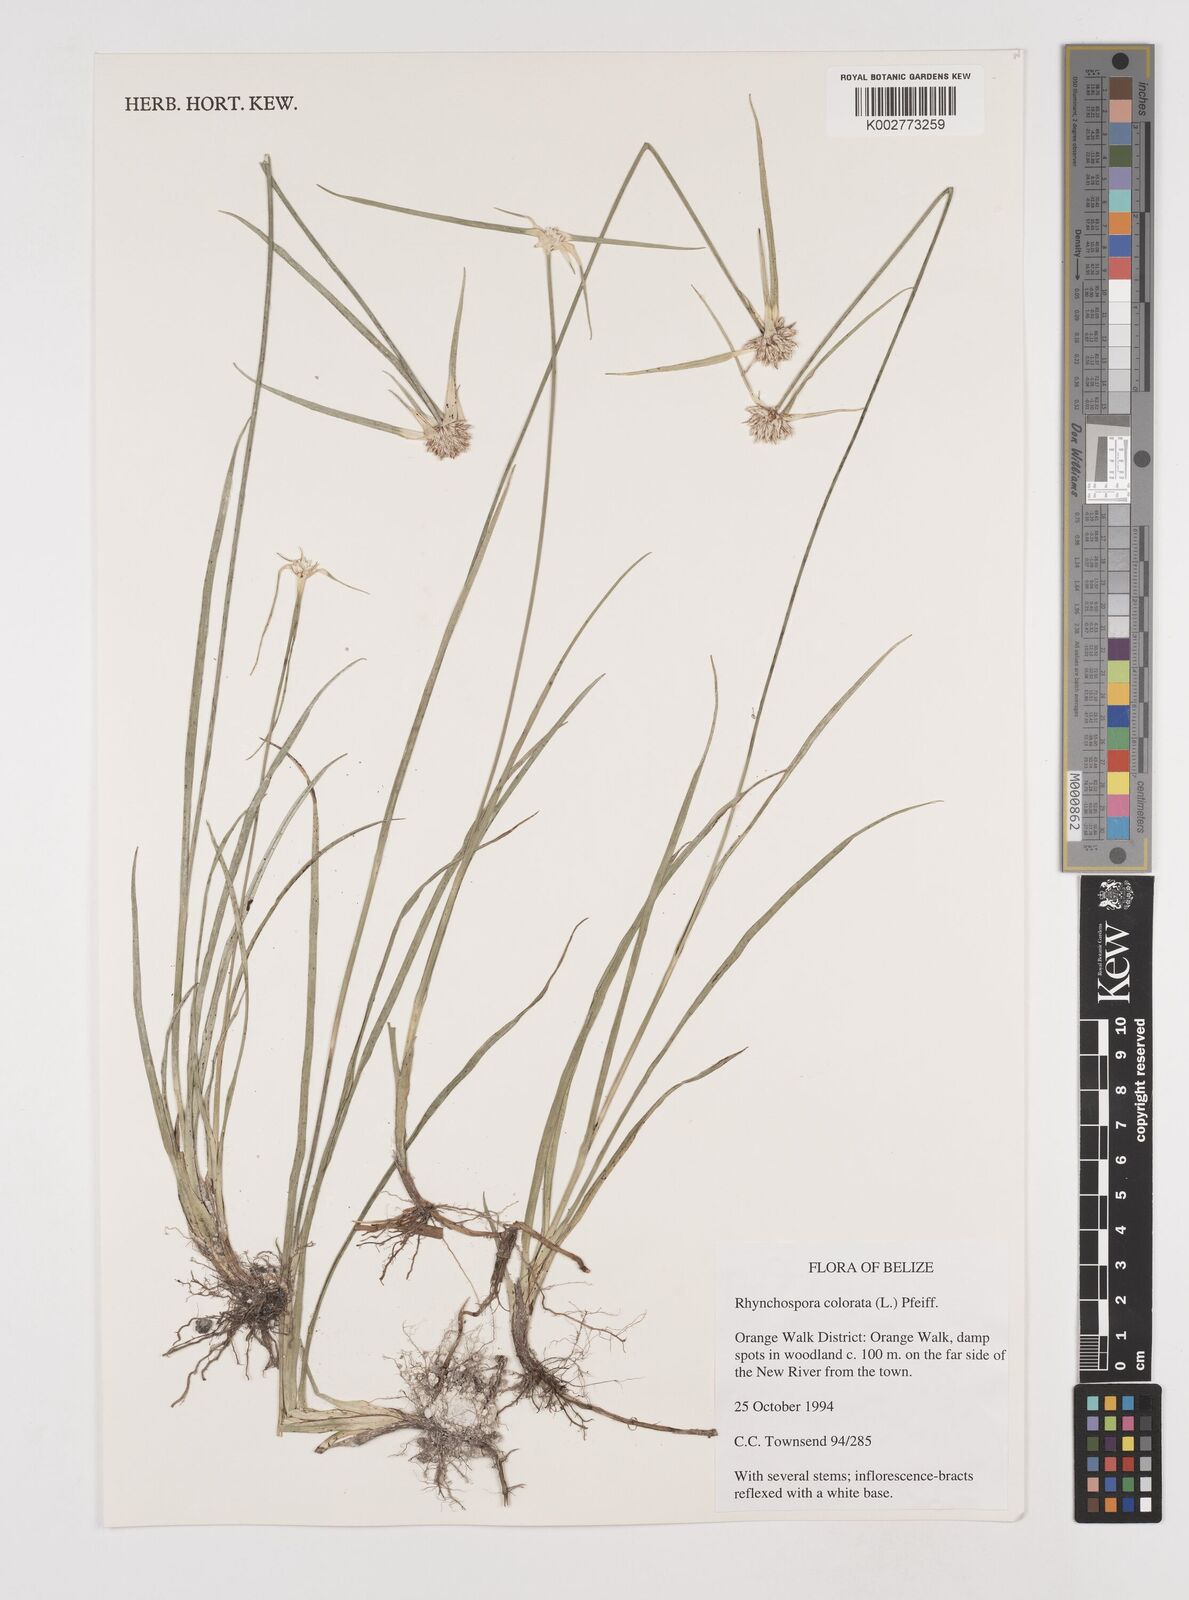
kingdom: Plantae
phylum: Tracheophyta
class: Liliopsida
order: Poales
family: Cyperaceae
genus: Rhynchospora
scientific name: Rhynchospora colorata
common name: Star sedge
